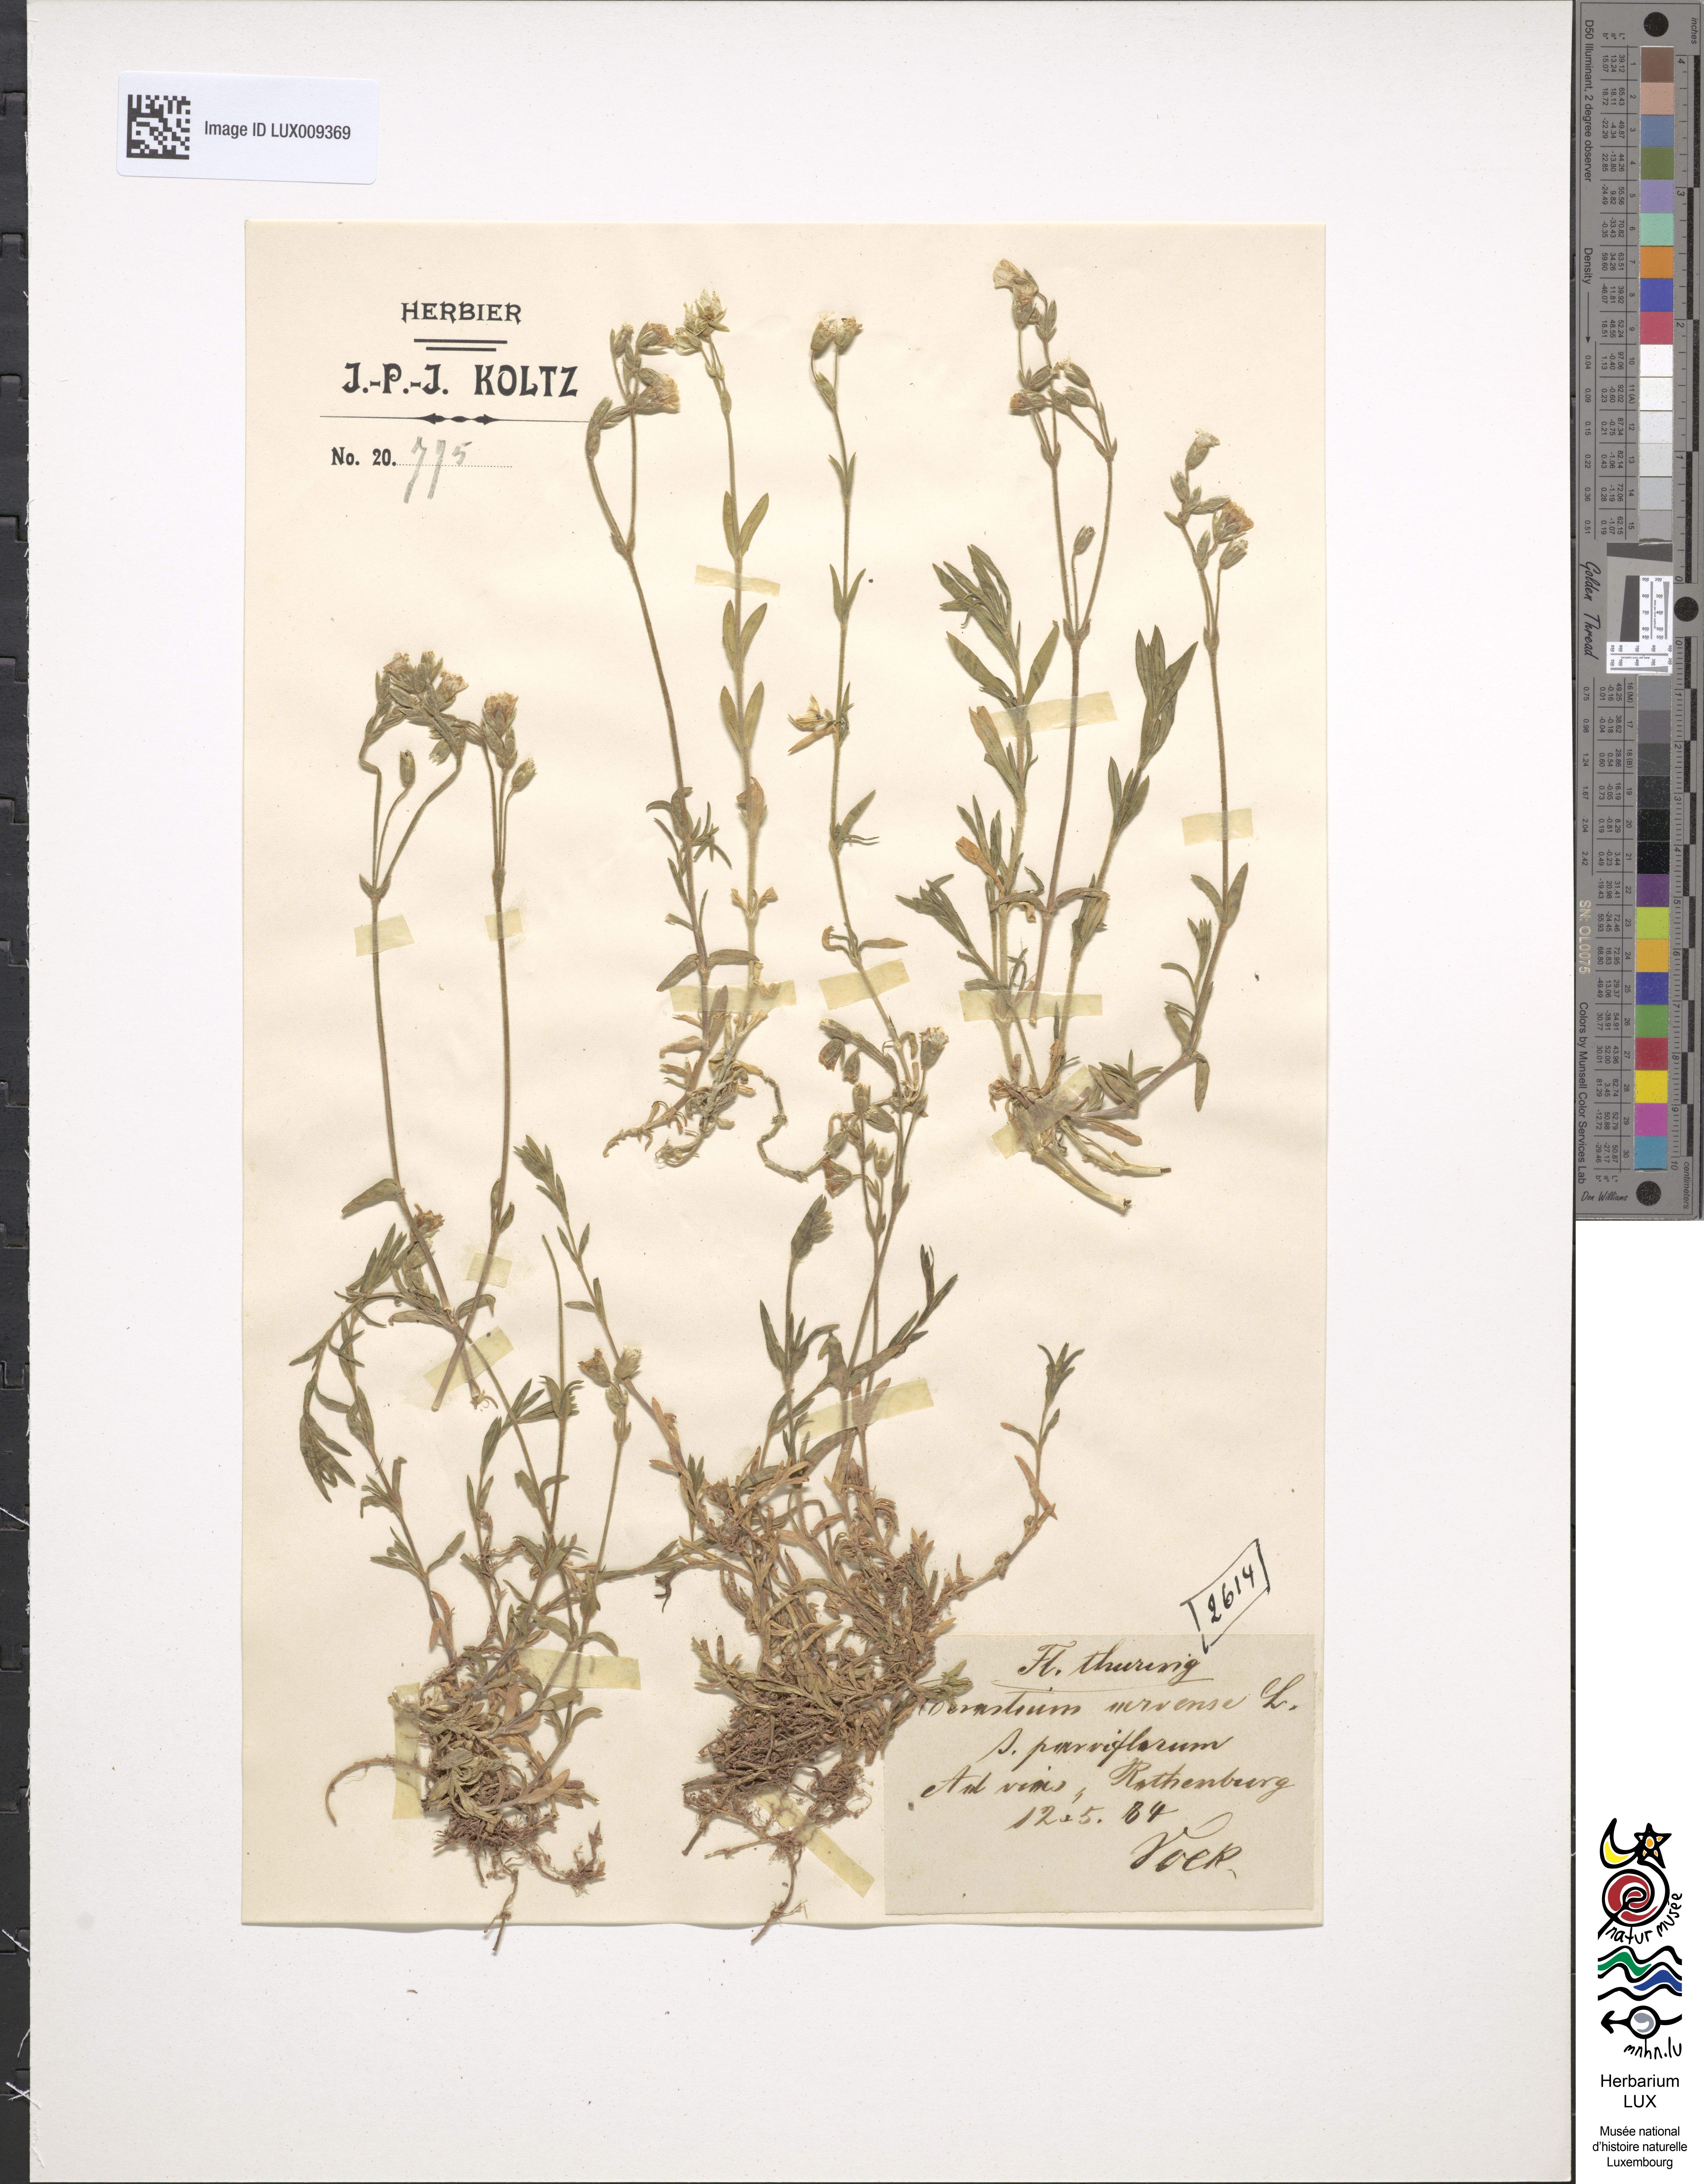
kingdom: Plantae
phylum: Tracheophyta
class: Magnoliopsida
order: Caryophyllales
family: Caryophyllaceae
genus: Cerastium
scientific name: Cerastium fuegianum
